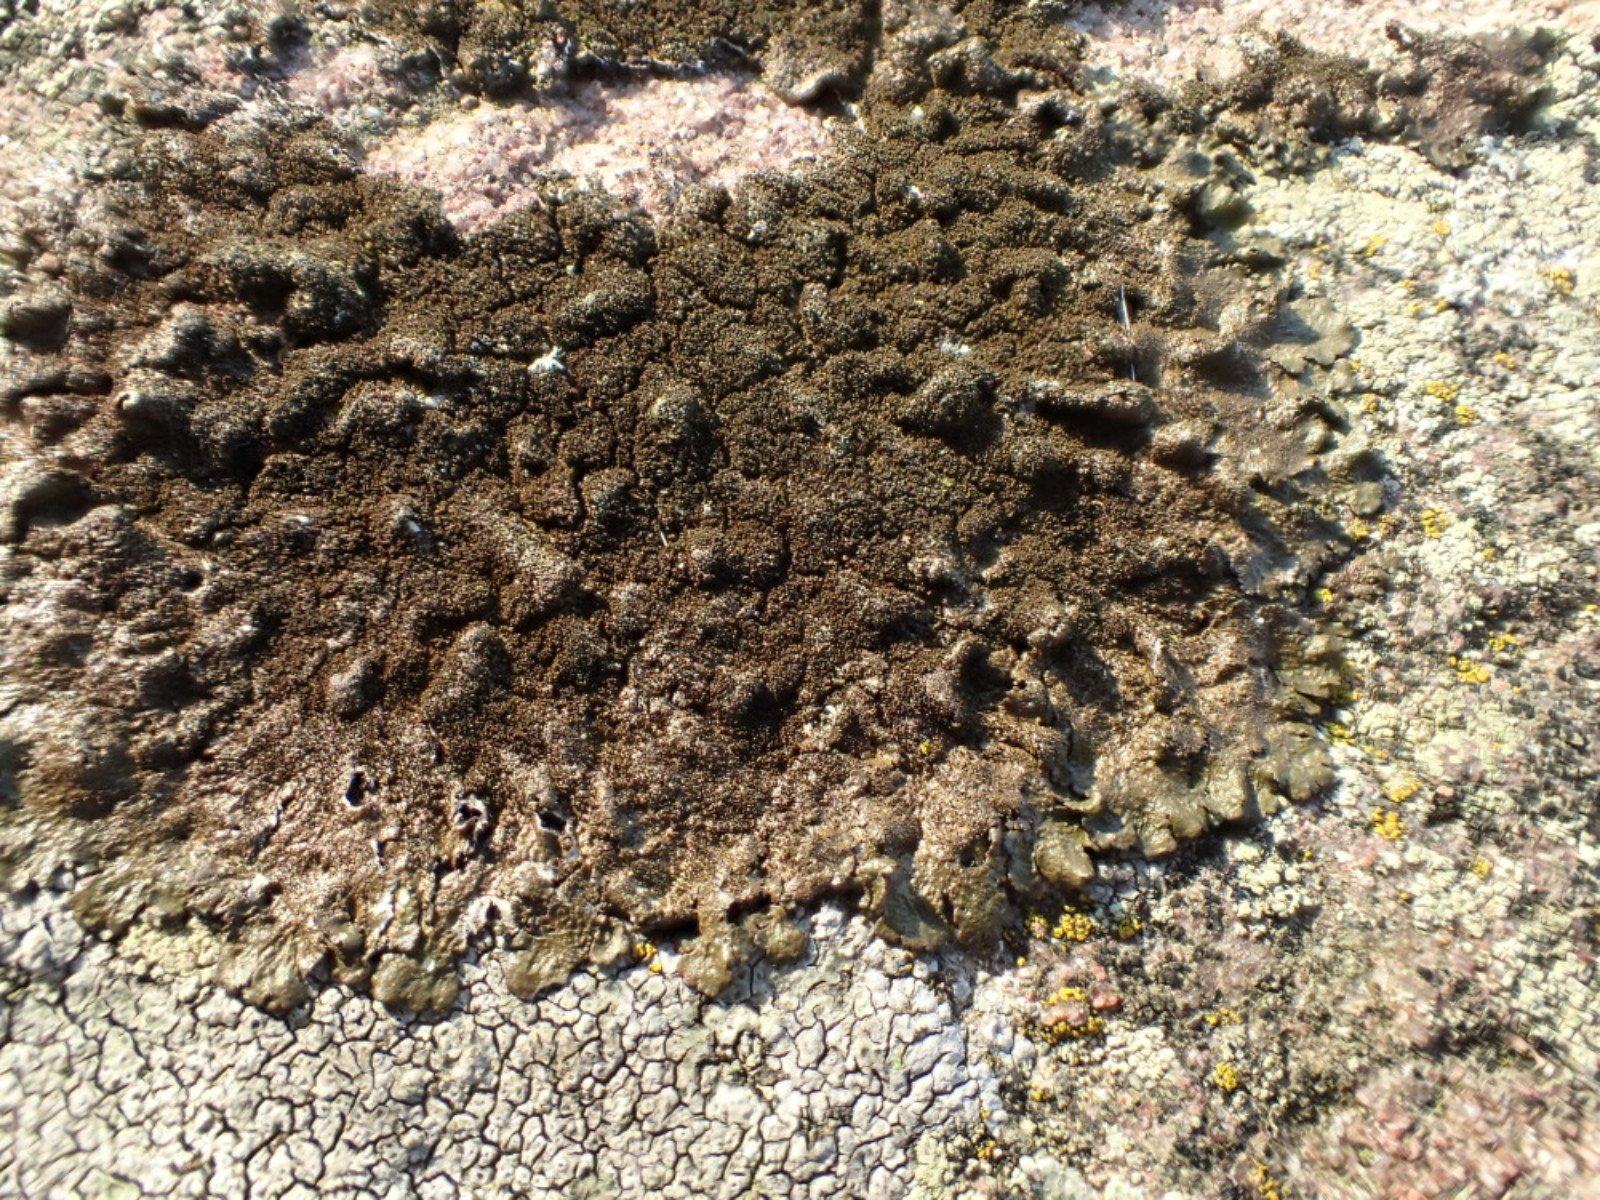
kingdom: Fungi
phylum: Ascomycota
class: Lecanoromycetes
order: Lecanorales
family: Parmeliaceae
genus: Melanelixia
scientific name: Melanelixia fuliginosa
